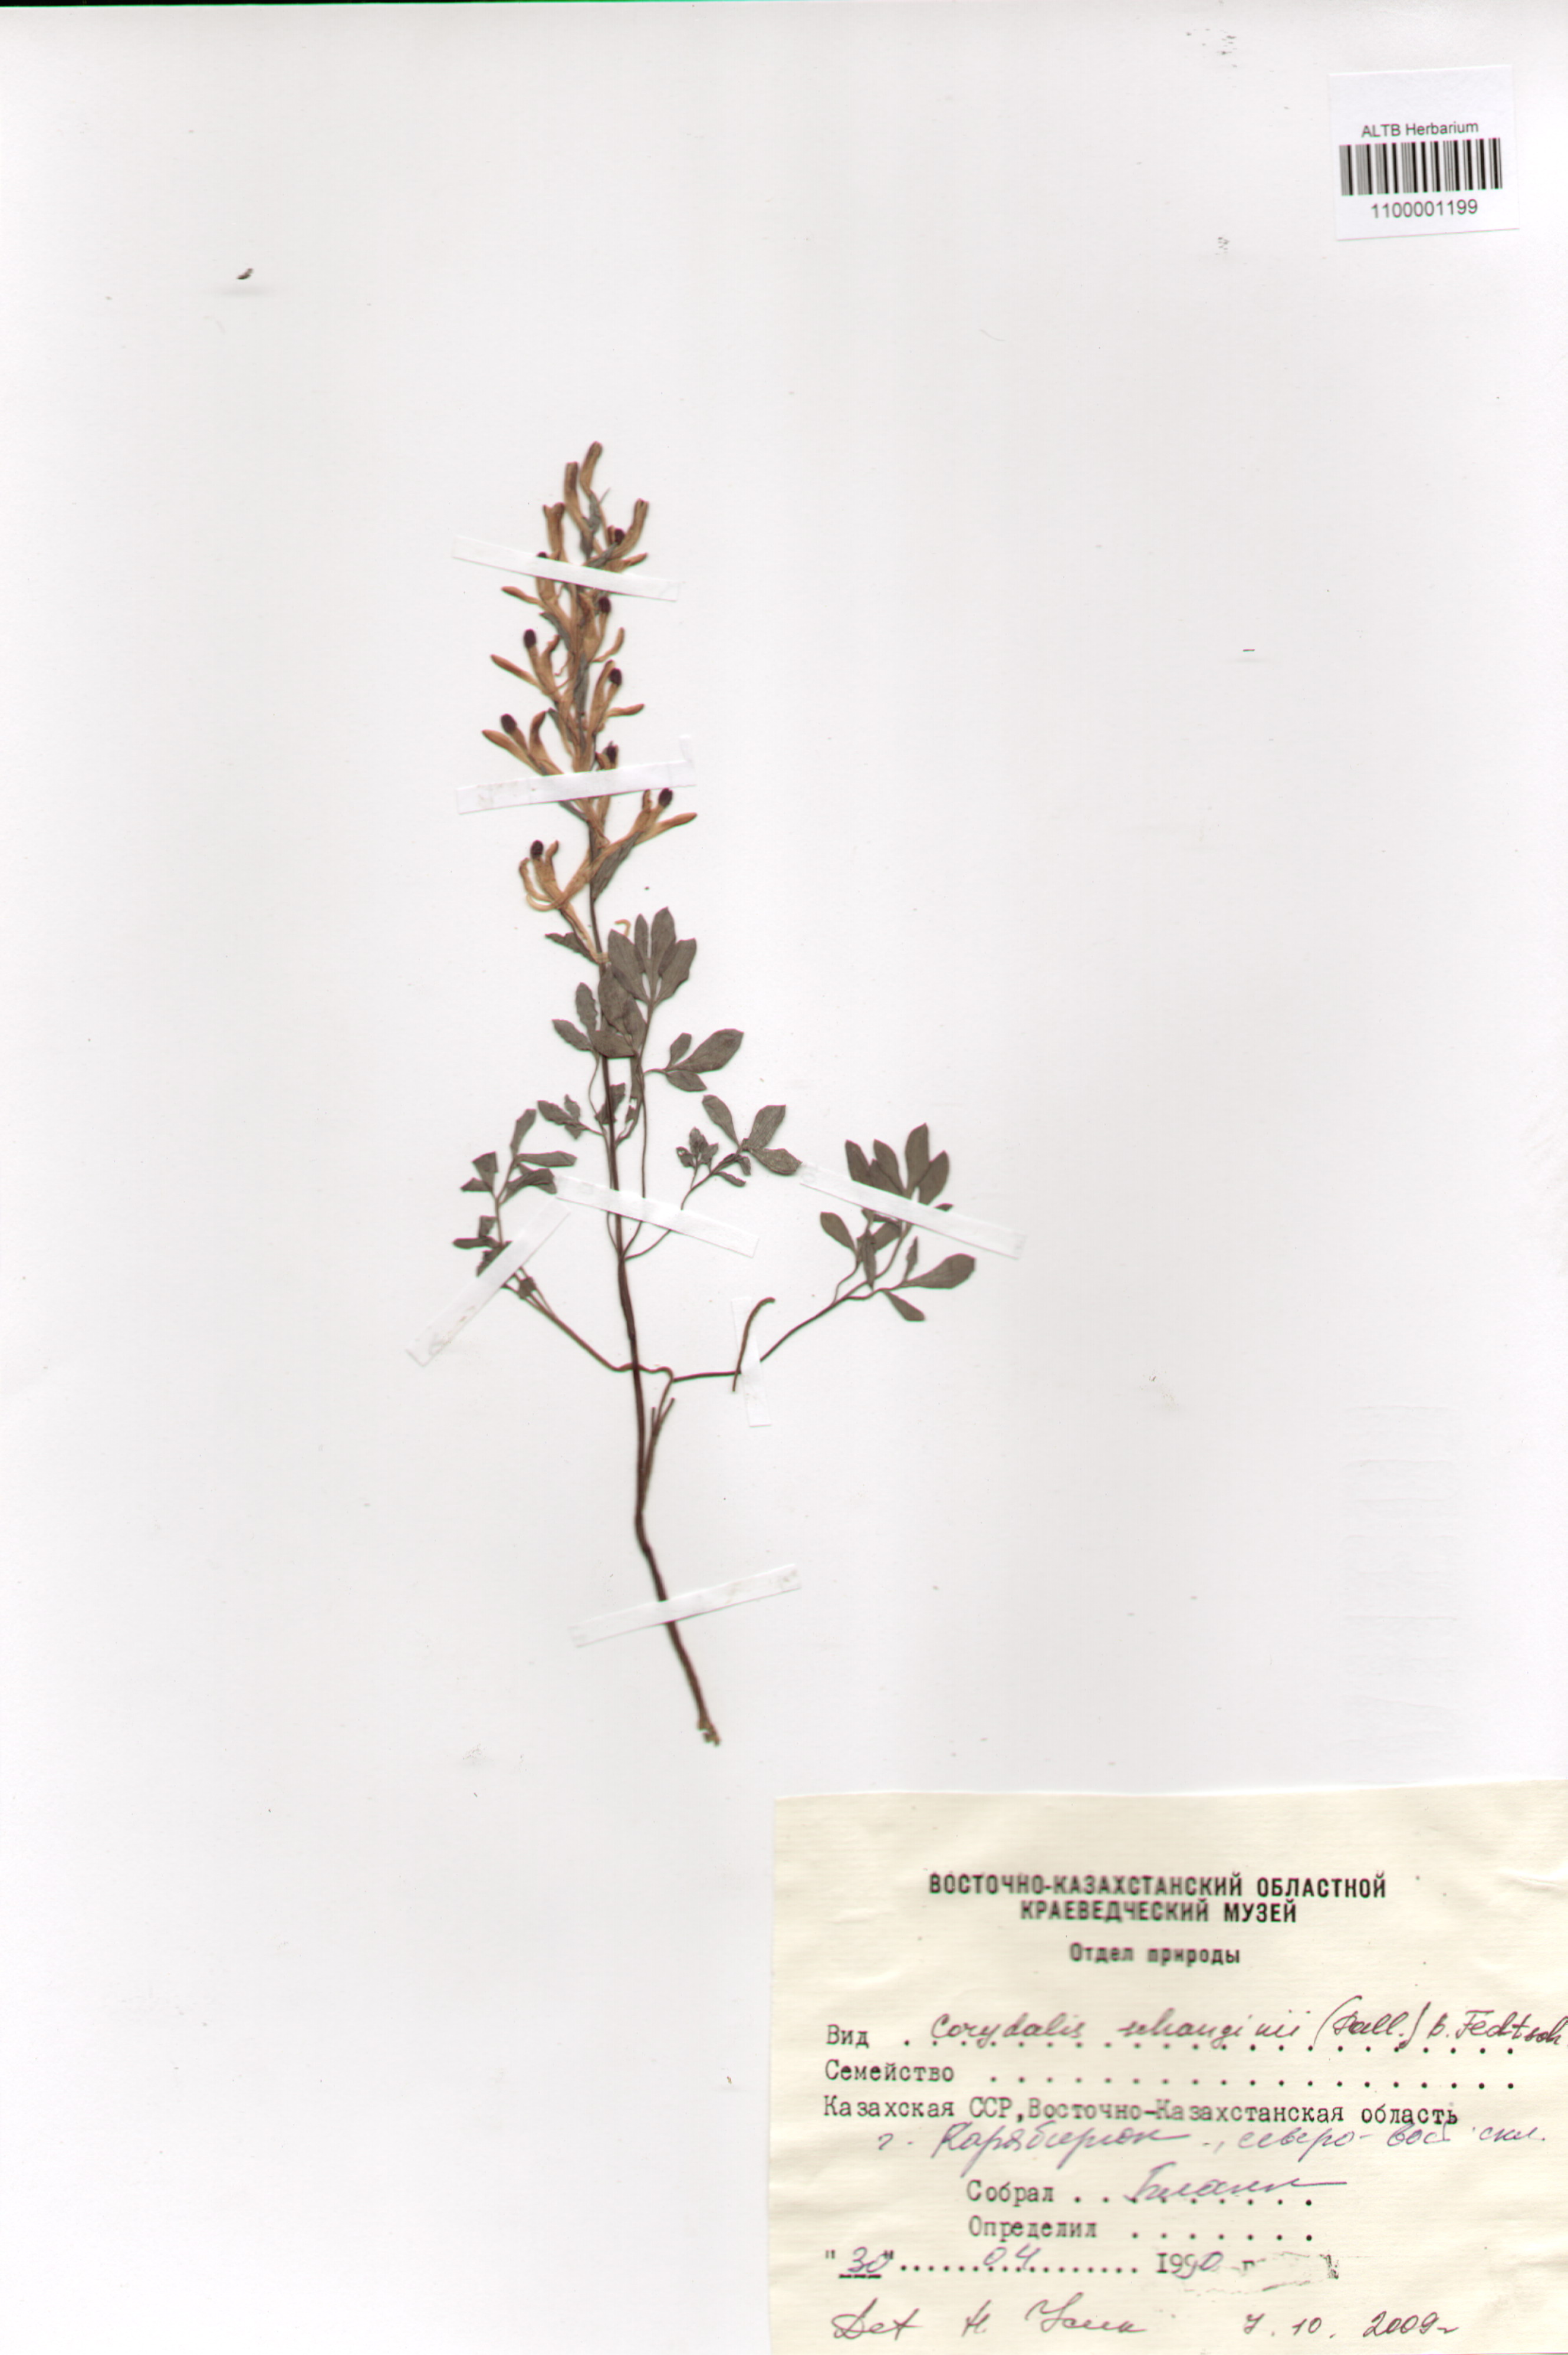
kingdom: Plantae
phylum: Tracheophyta
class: Magnoliopsida
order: Ranunculales
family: Papaveraceae
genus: Corydalis
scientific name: Corydalis schanginii
